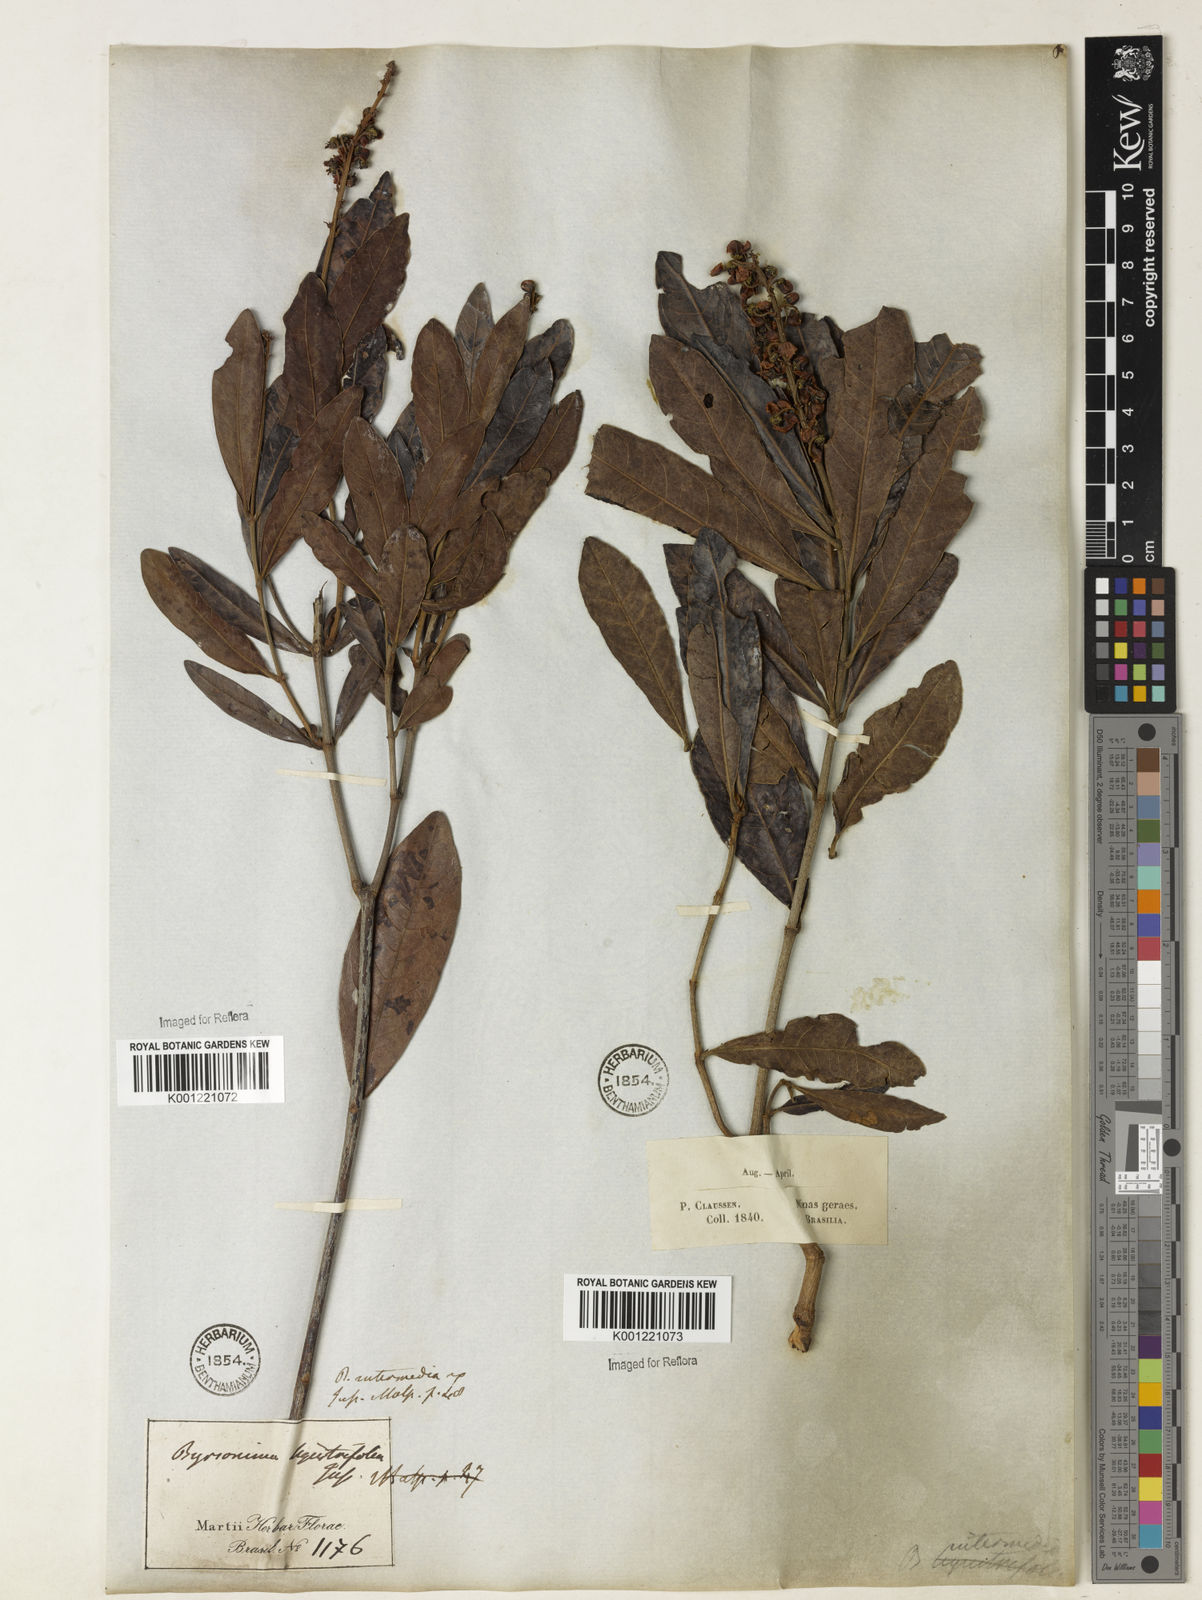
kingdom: Plantae
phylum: Tracheophyta
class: Magnoliopsida
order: Malpighiales
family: Malpighiaceae
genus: Byrsonima
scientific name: Byrsonima intermedia
